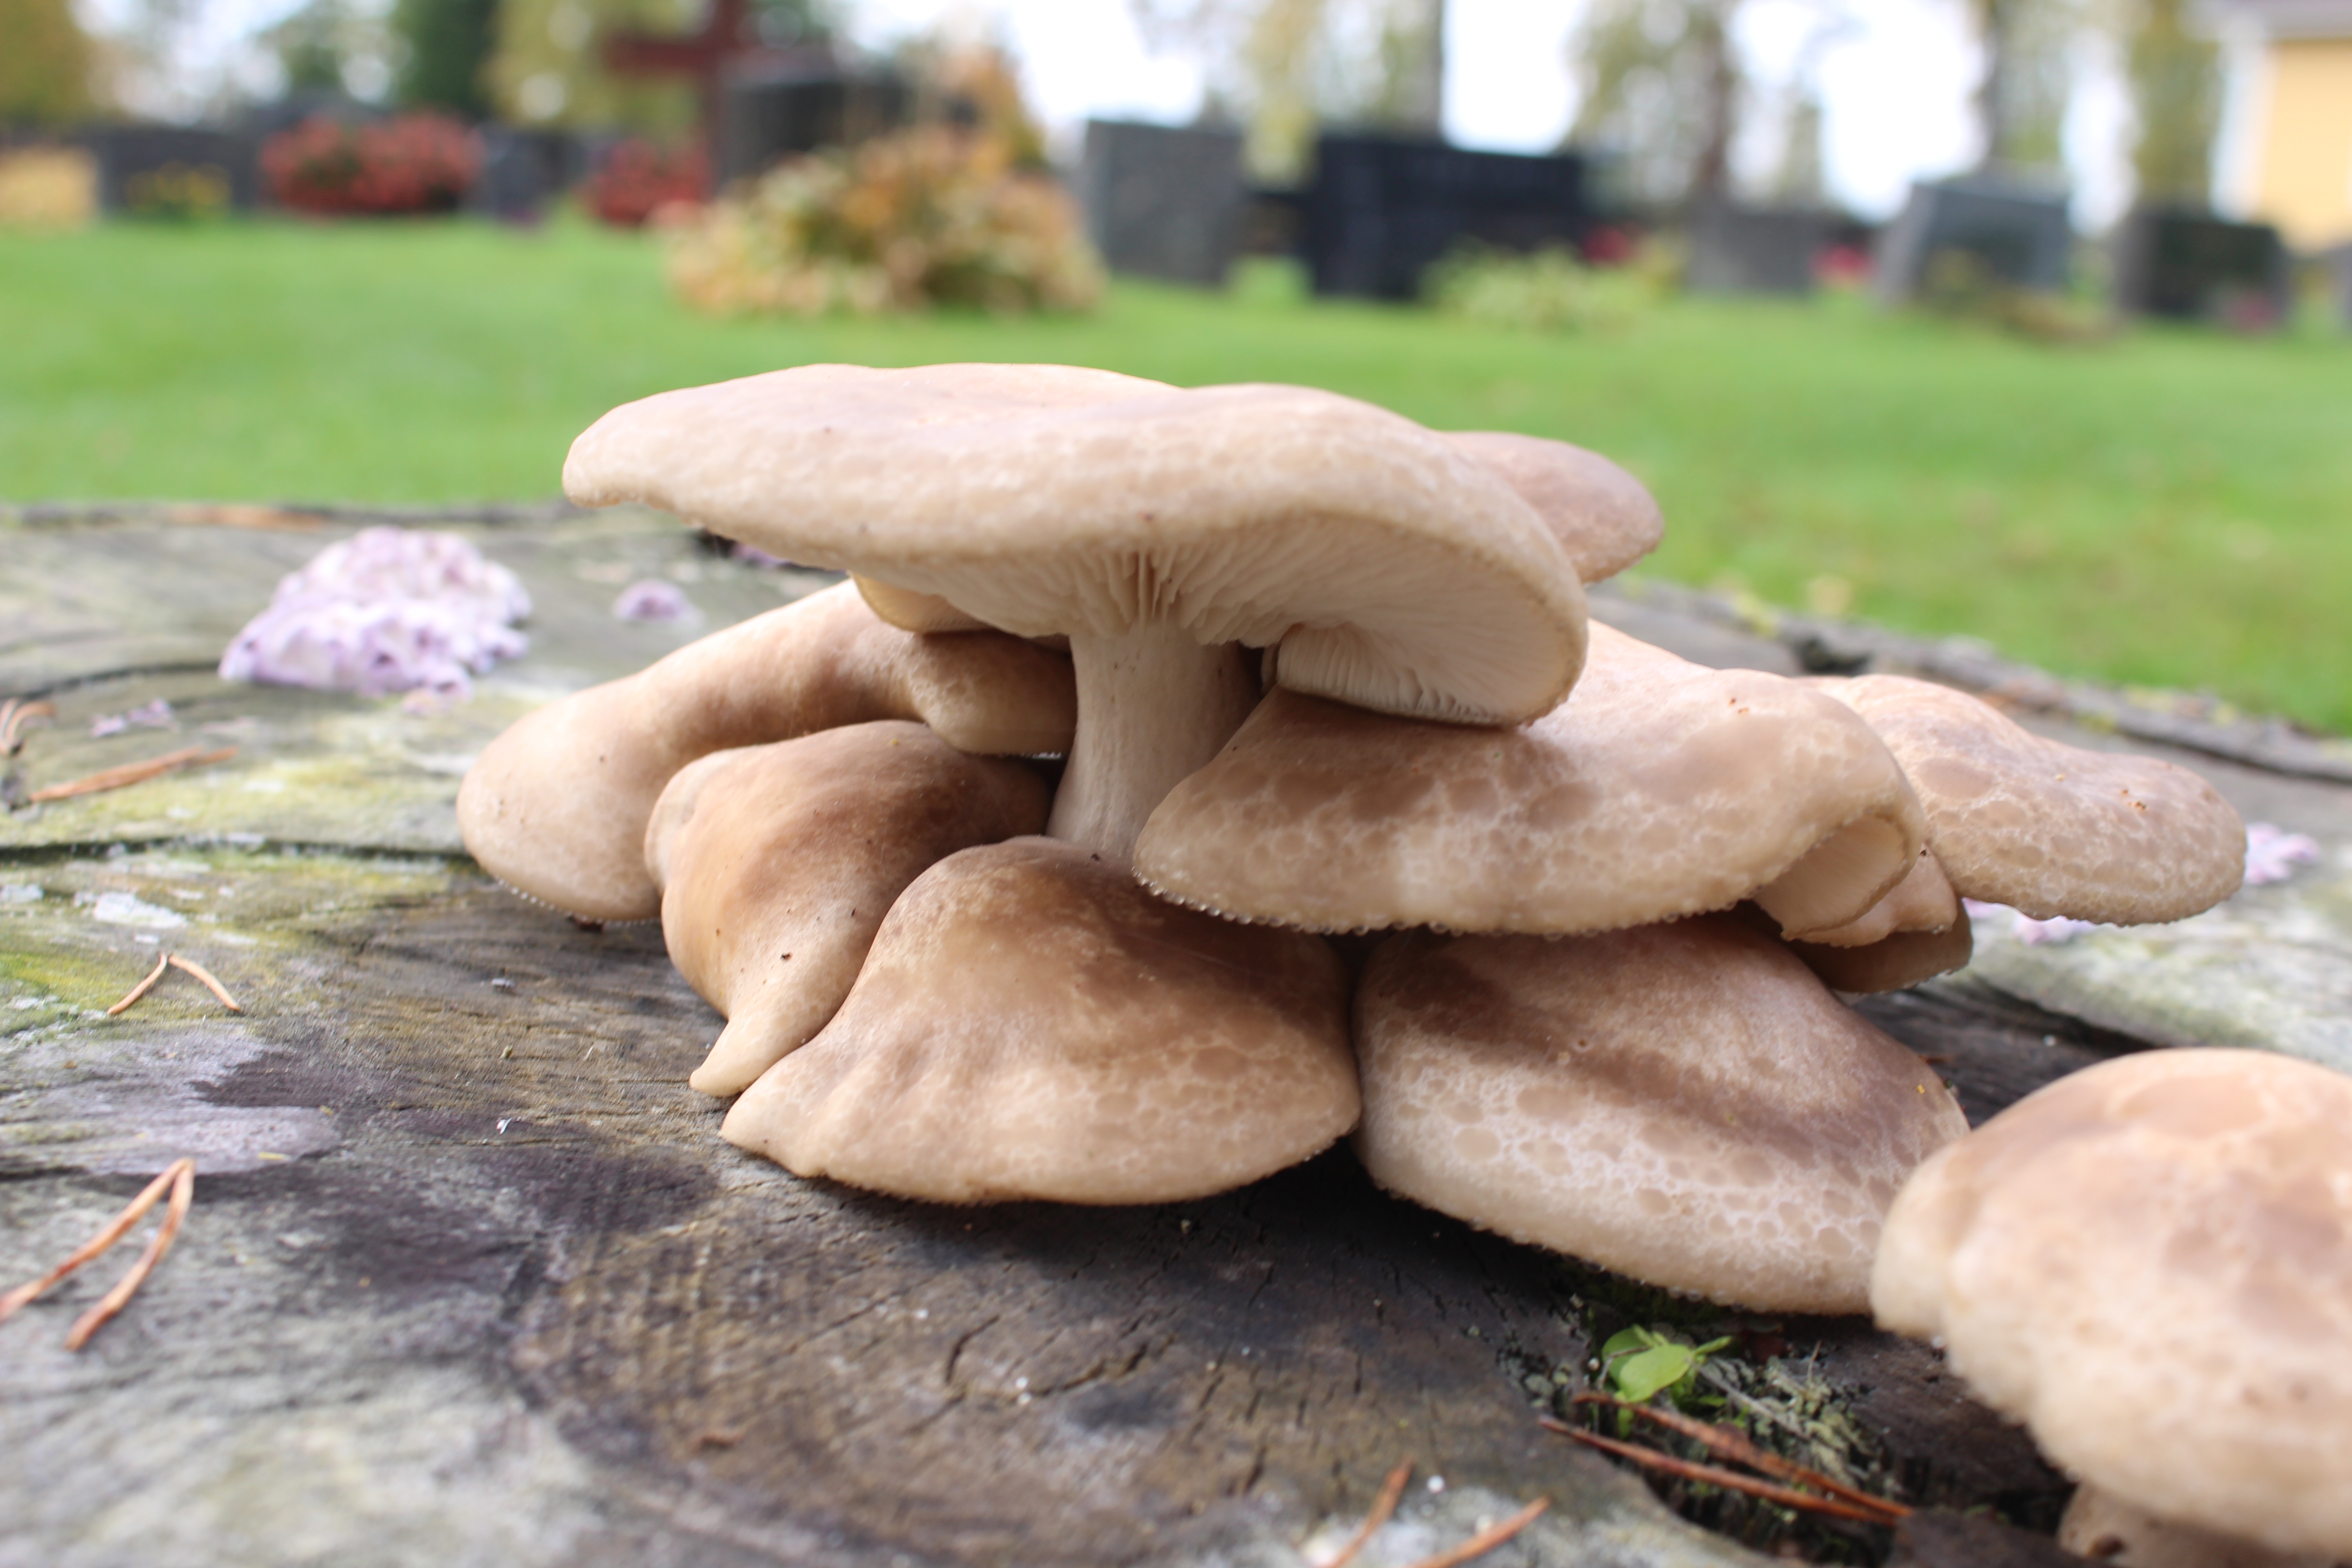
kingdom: Fungi
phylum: Basidiomycota
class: Agaricomycetes
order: Agaricales
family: Lyophyllaceae
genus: Hypsizygus
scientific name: Hypsizygus tessulatus
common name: Beech mushroom
